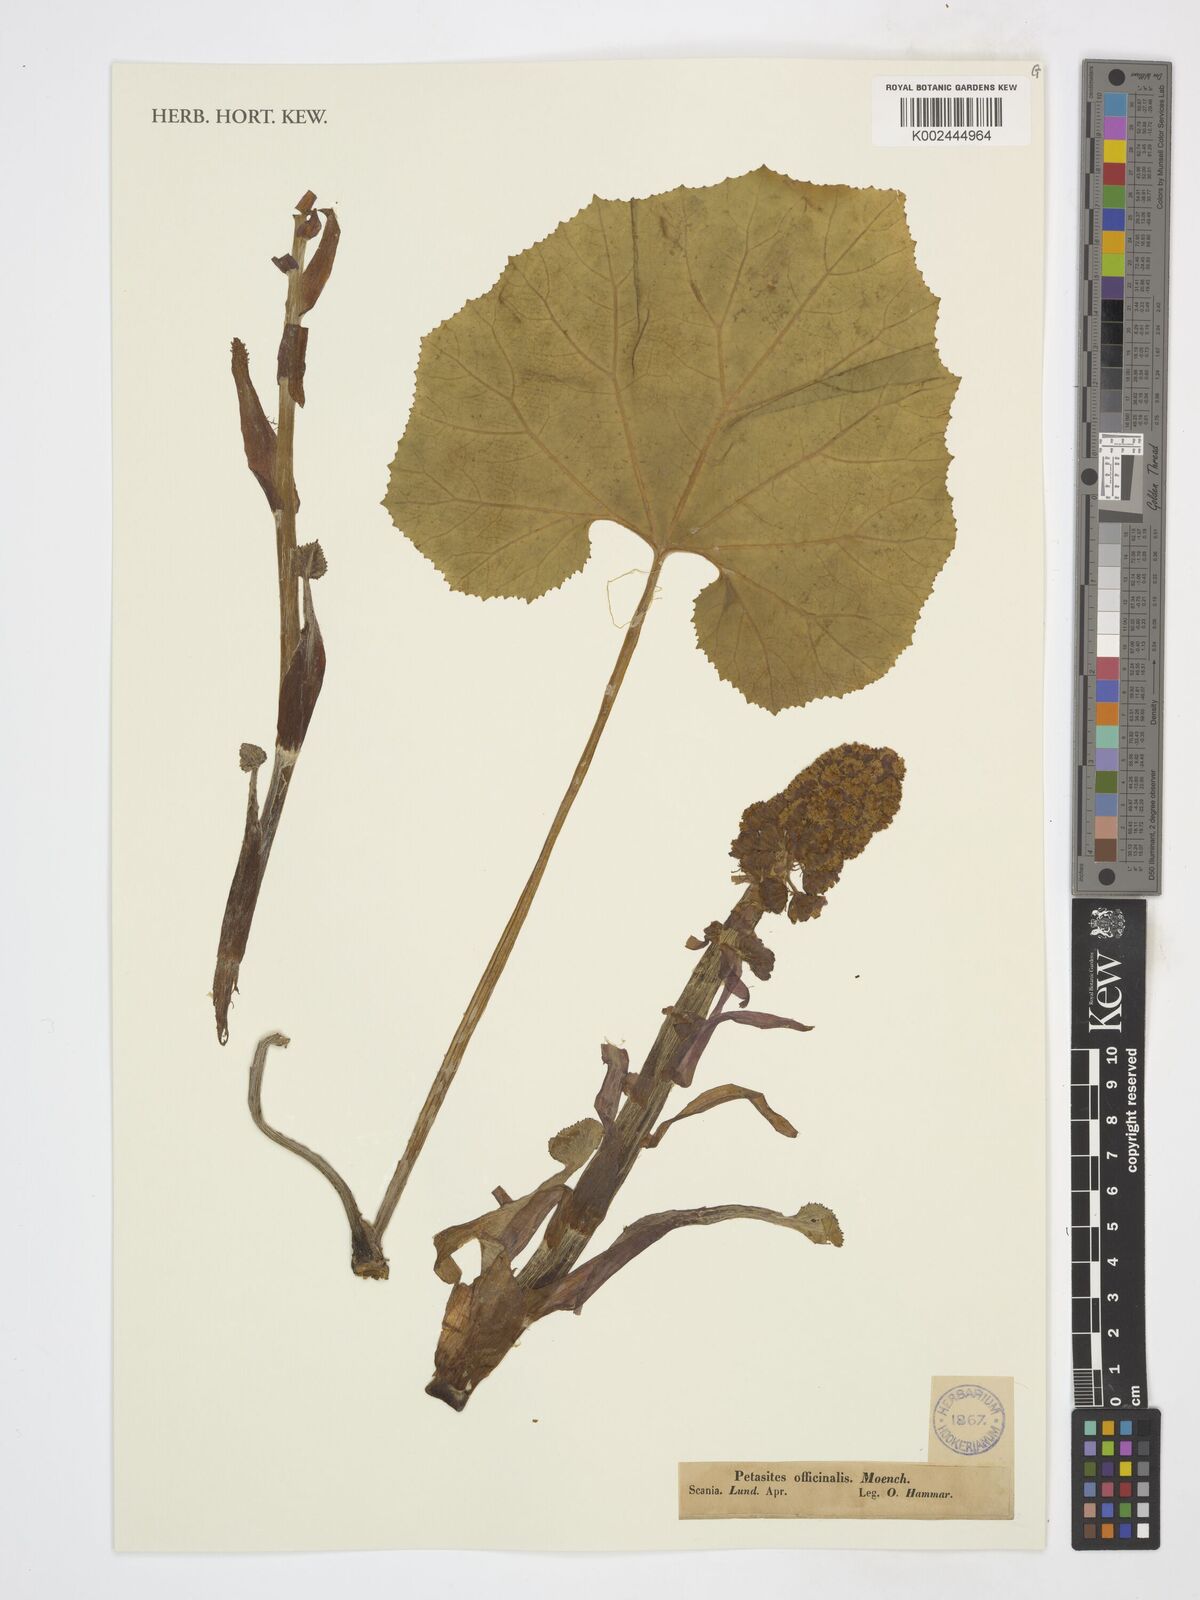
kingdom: Plantae
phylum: Tracheophyta
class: Magnoliopsida
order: Asterales
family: Asteraceae
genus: Petasites
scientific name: Petasites hybridus
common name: Butterbur
